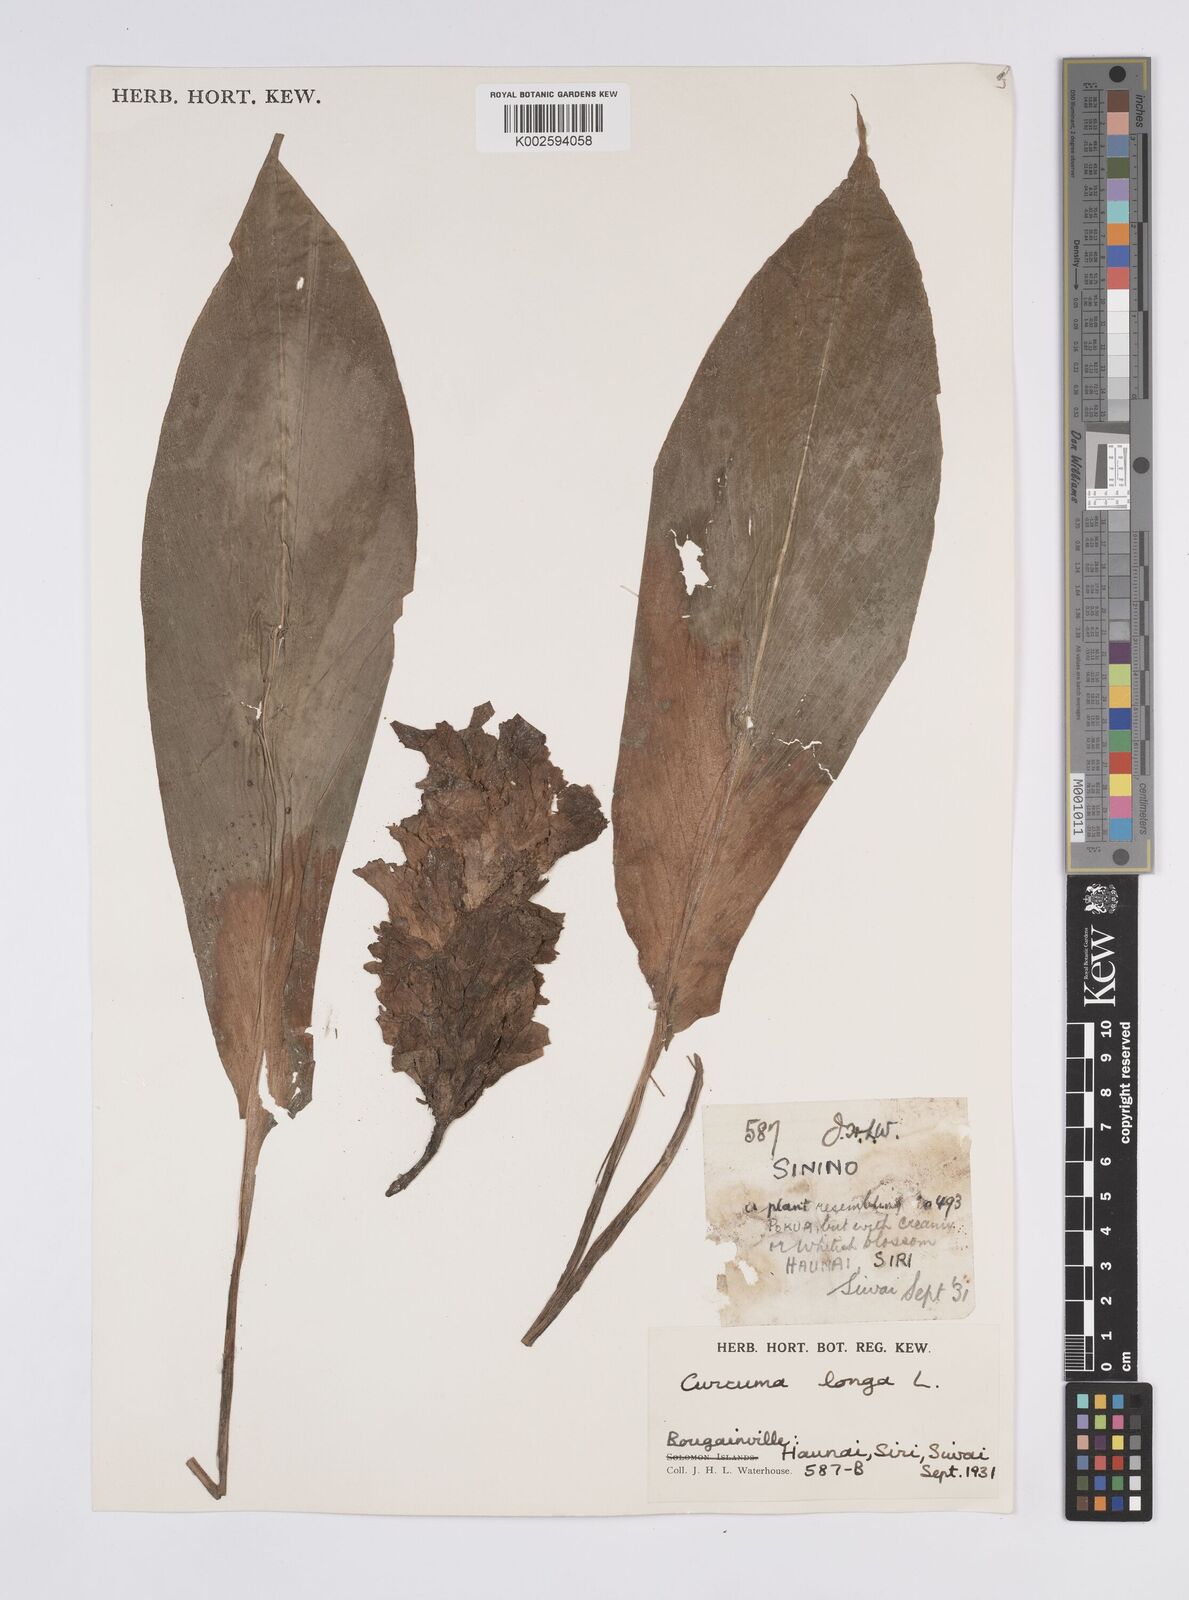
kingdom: Plantae
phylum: Tracheophyta
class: Liliopsida
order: Zingiberales
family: Zingiberaceae
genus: Curcuma
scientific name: Curcuma longa
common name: Turmeric
